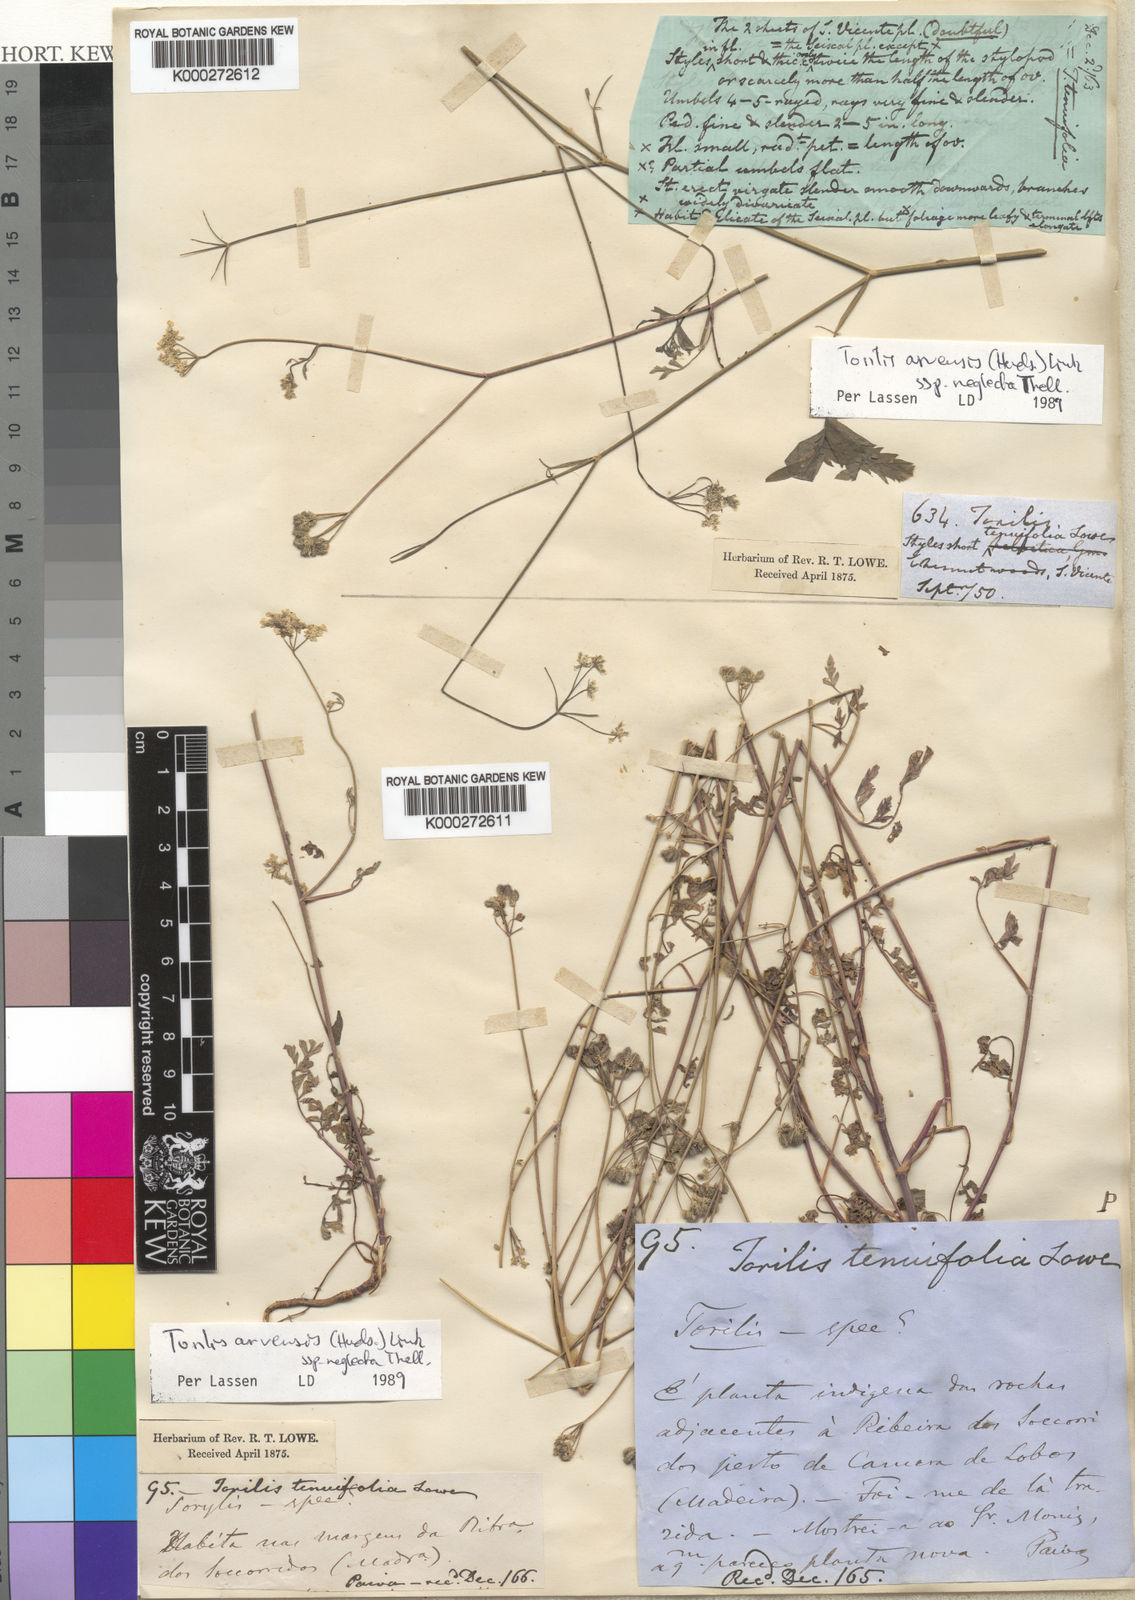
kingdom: Plantae
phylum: Tracheophyta
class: Magnoliopsida
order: Apiales
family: Apiaceae
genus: Torilis
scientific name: Torilis arvensis
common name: Spreading hedge-parsley
